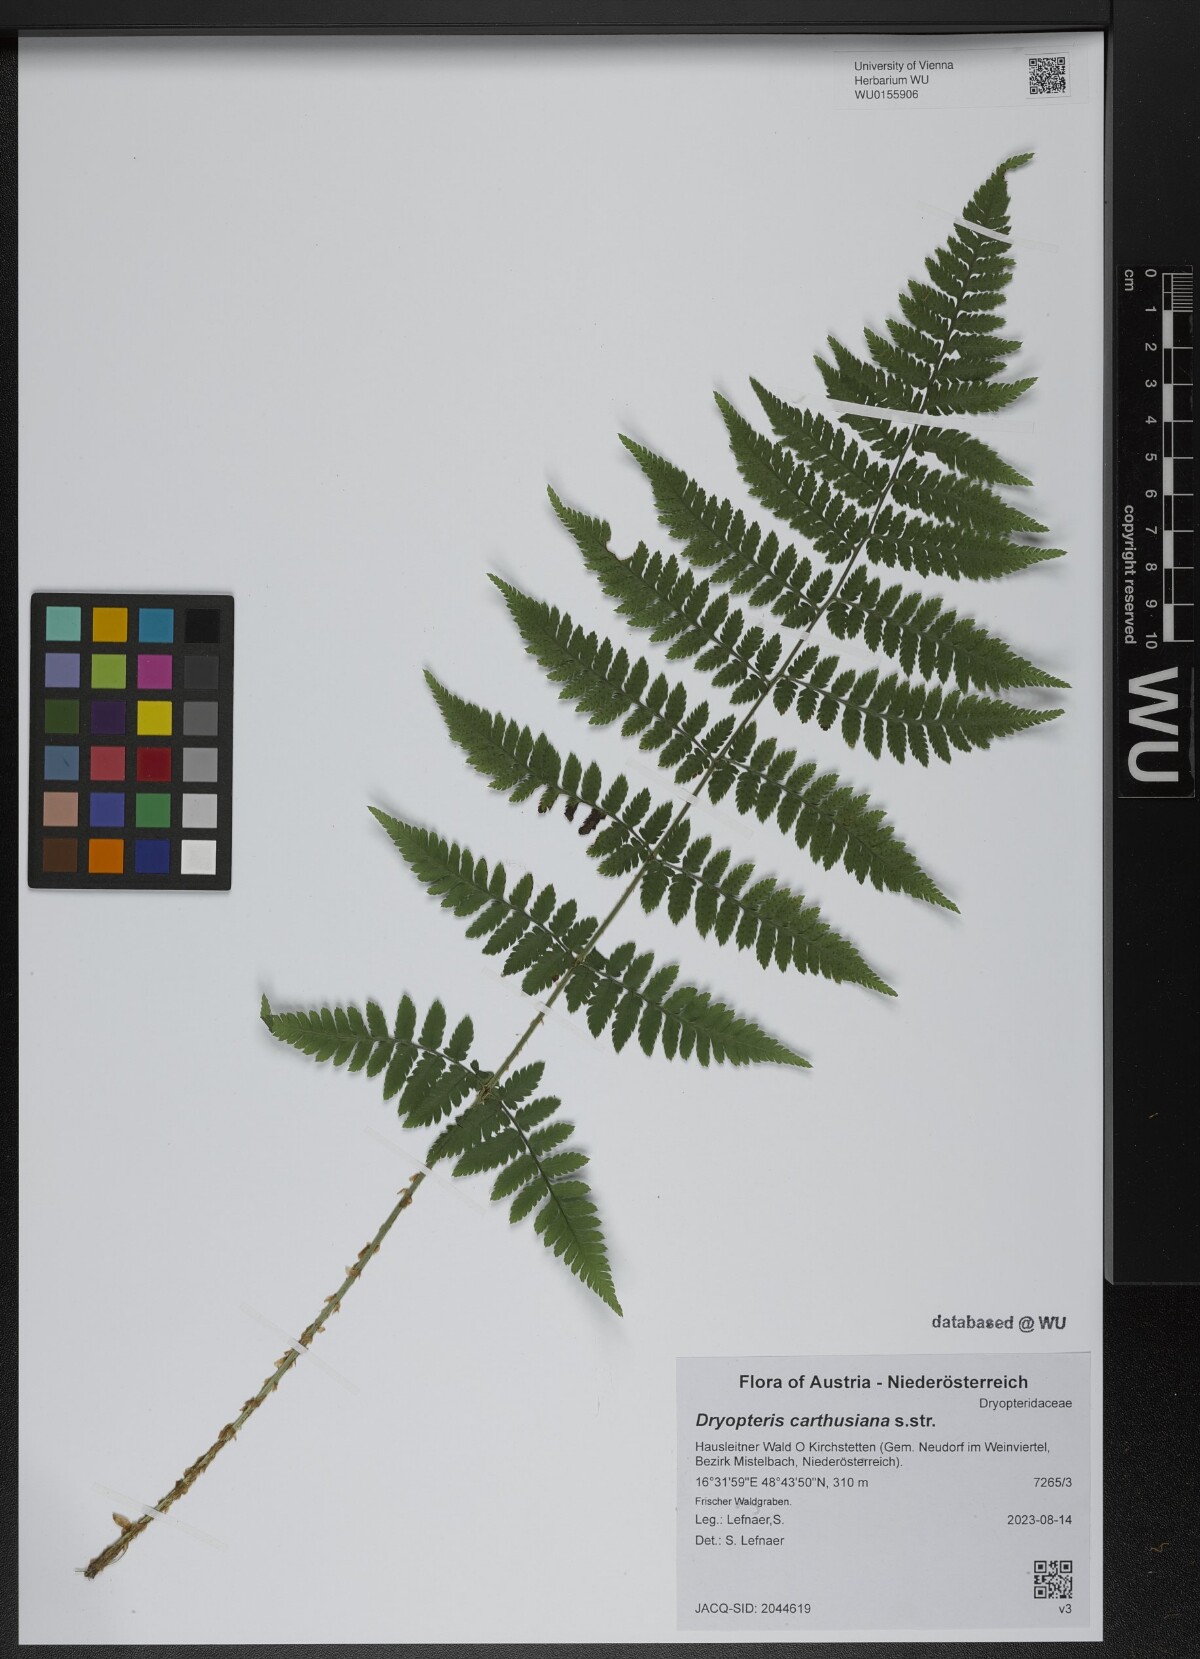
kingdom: Plantae
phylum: Tracheophyta
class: Polypodiopsida
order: Polypodiales
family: Dryopteridaceae
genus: Dryopteris
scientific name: Dryopteris carthusiana
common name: Narrow buckler-fern
